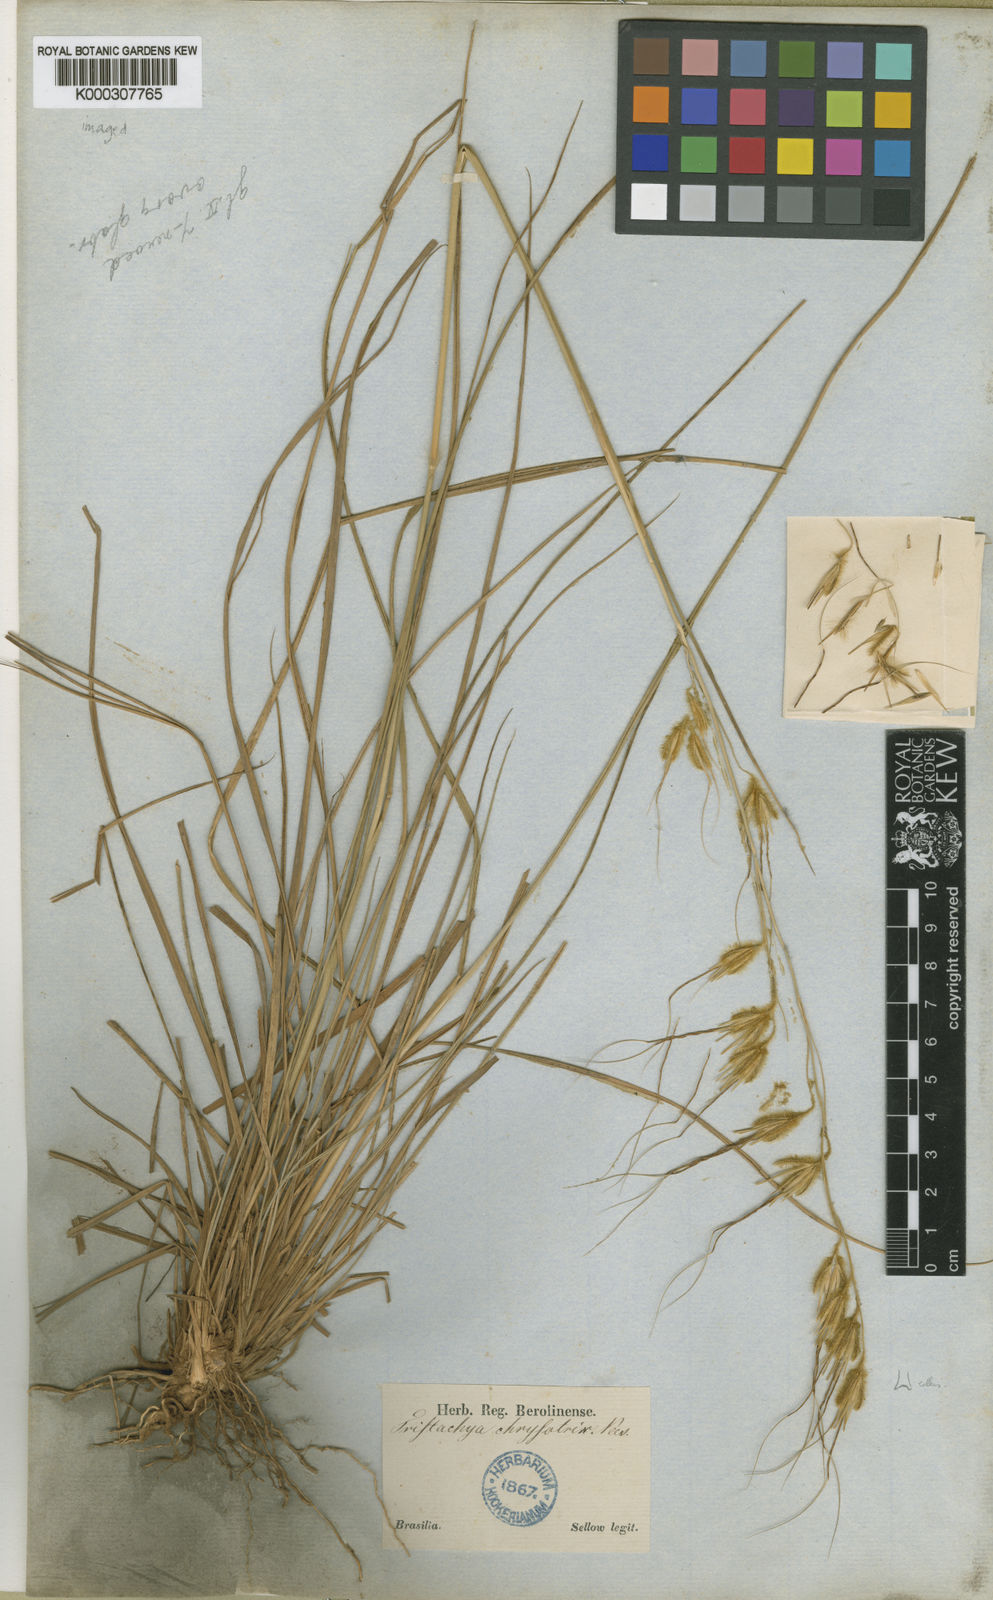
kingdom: Plantae
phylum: Tracheophyta
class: Liliopsida
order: Poales
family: Poaceae
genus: Loudetiopsis
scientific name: Loudetiopsis chrysothrix
